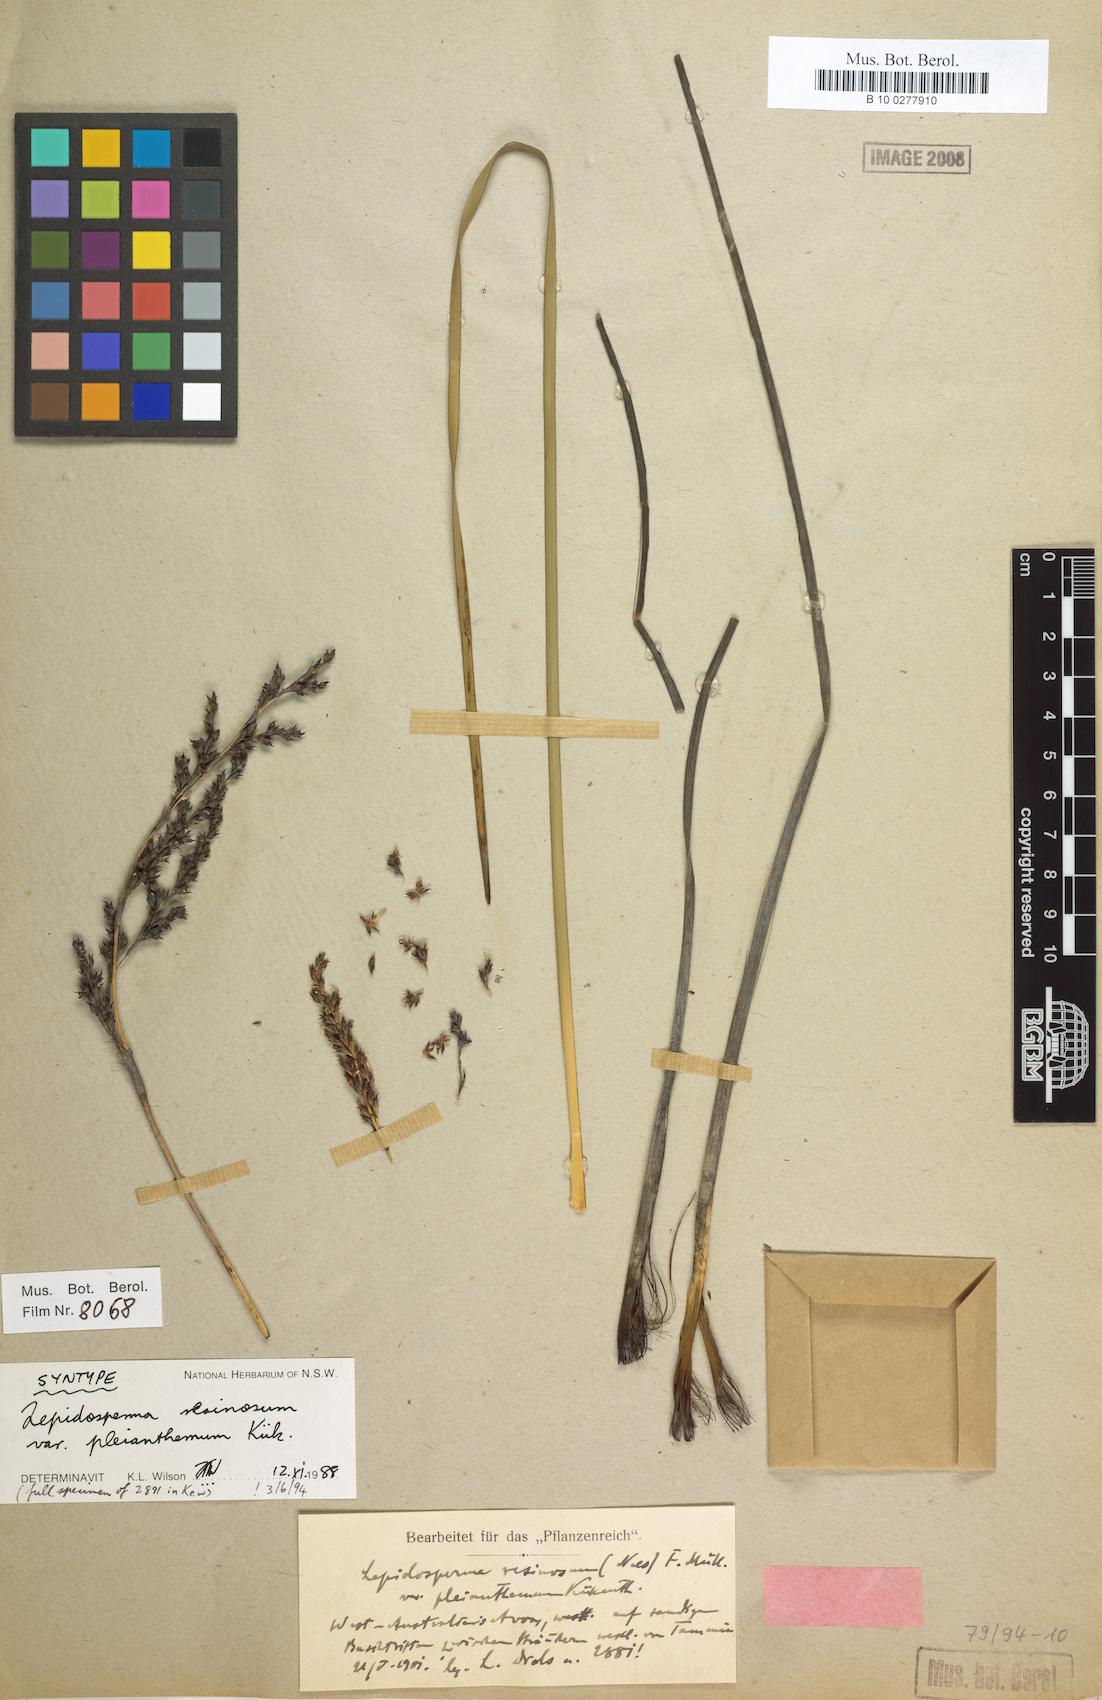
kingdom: Plantae
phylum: Tracheophyta
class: Liliopsida
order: Poales
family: Cyperaceae
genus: Lepidosperma
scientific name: Lepidosperma resinosum
